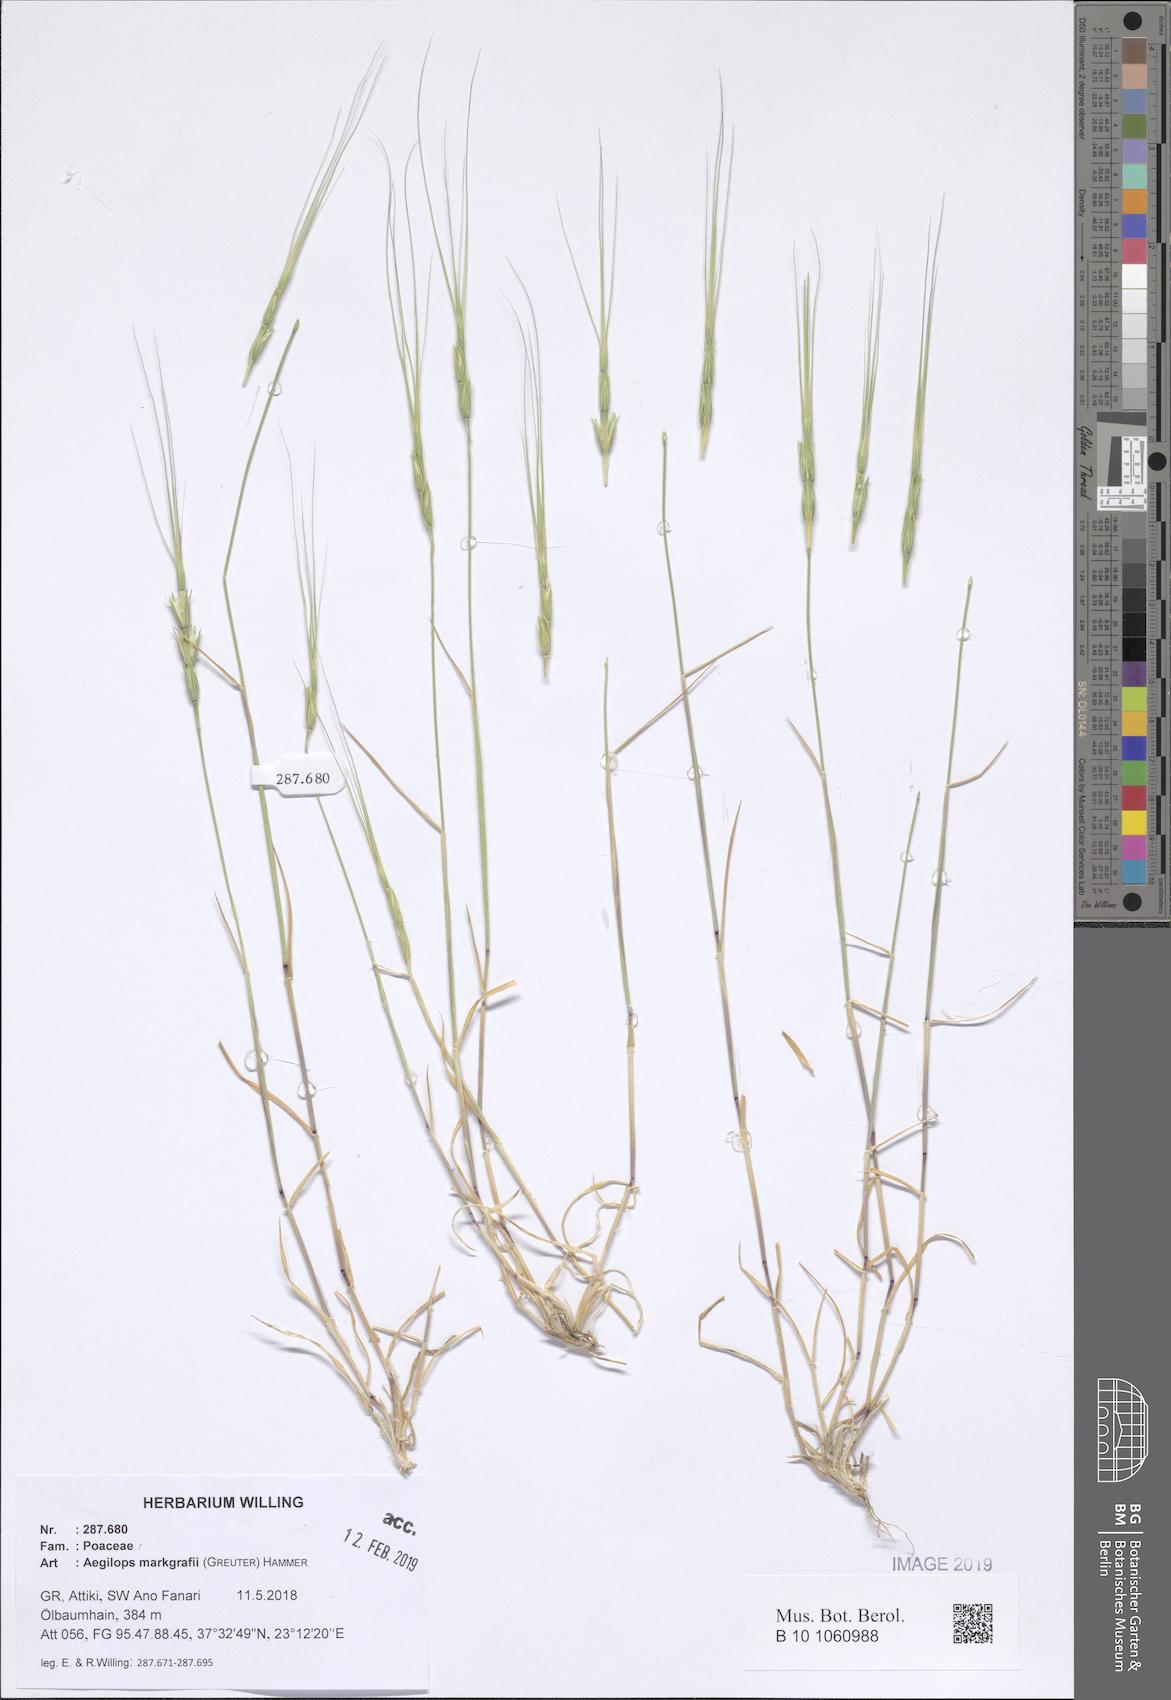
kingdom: Plantae
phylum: Tracheophyta
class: Liliopsida
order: Poales
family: Poaceae
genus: Aegilops
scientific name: Aegilops caudata
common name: Cretan hard-grass
